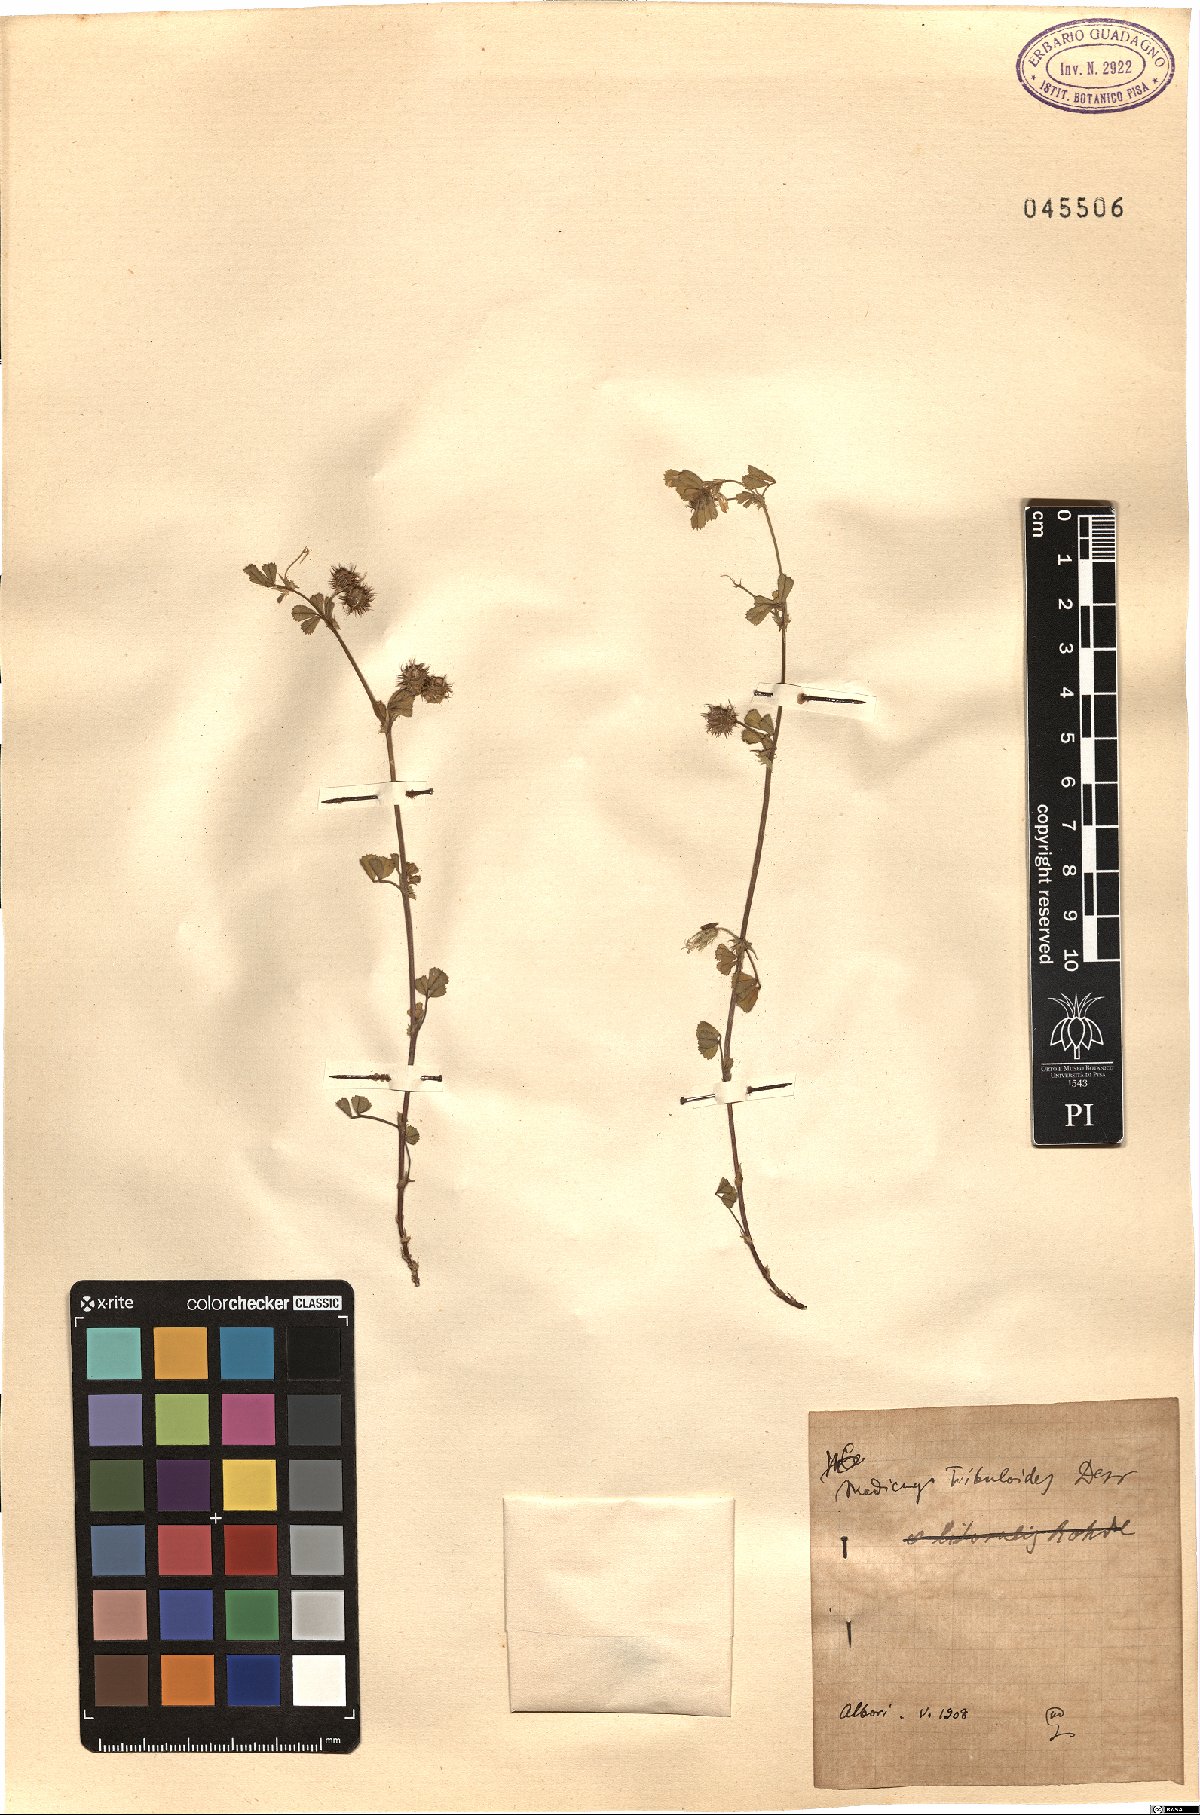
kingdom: Plantae
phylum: Tracheophyta
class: Magnoliopsida
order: Fabales
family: Fabaceae
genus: Medicago
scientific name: Medicago truncatula
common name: Strong-spined medick
